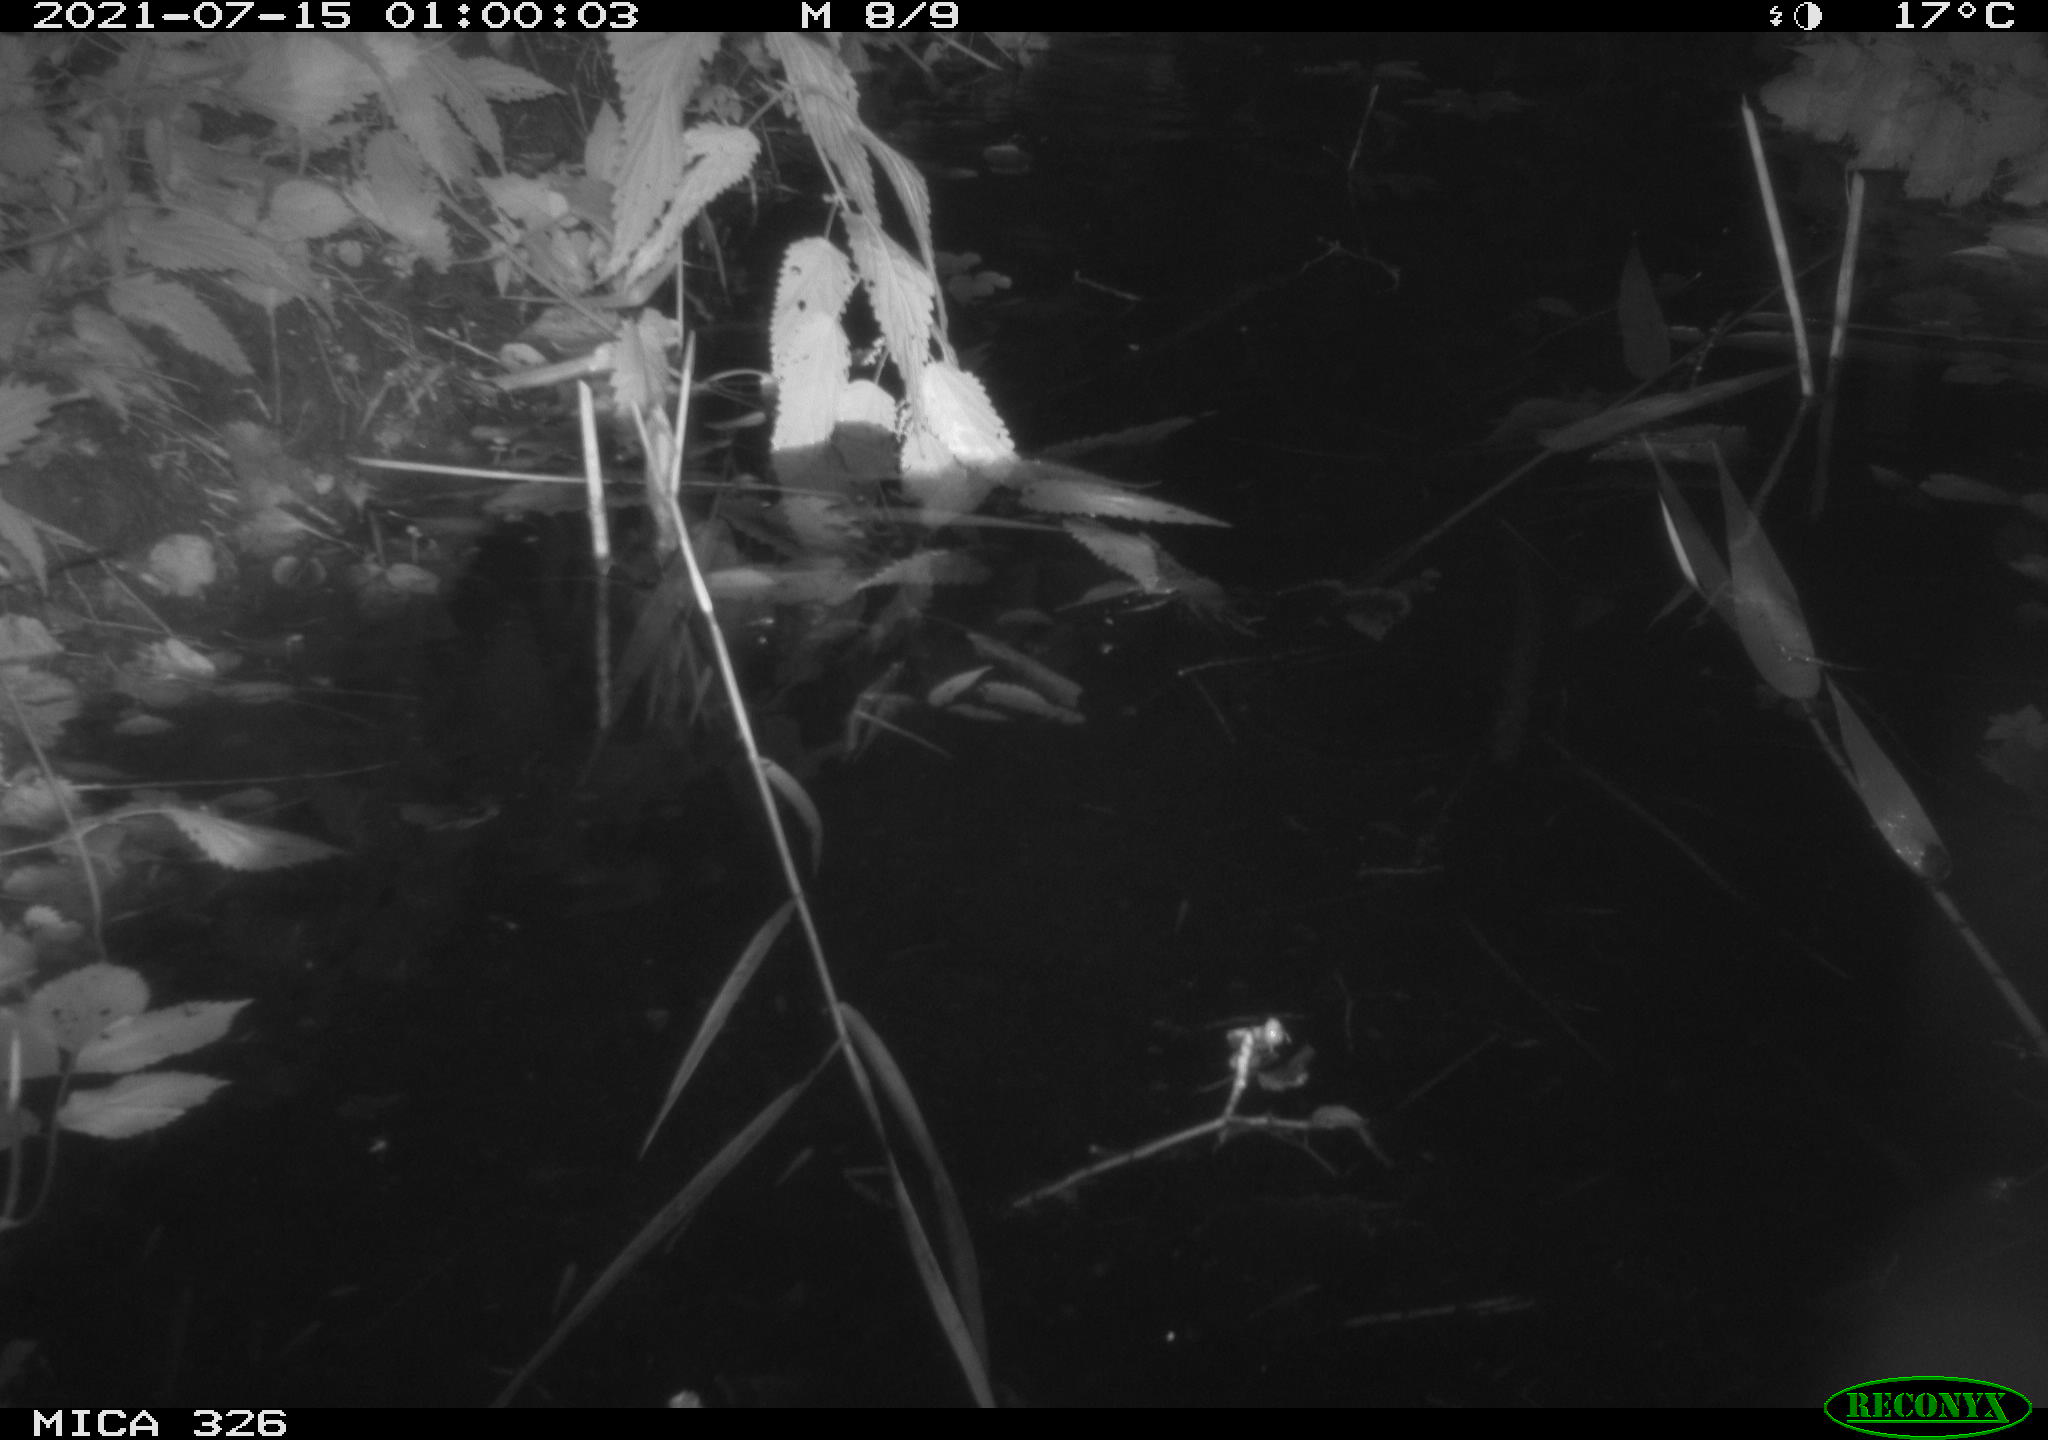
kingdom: Animalia
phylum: Chordata
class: Mammalia
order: Rodentia
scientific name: Rodentia
